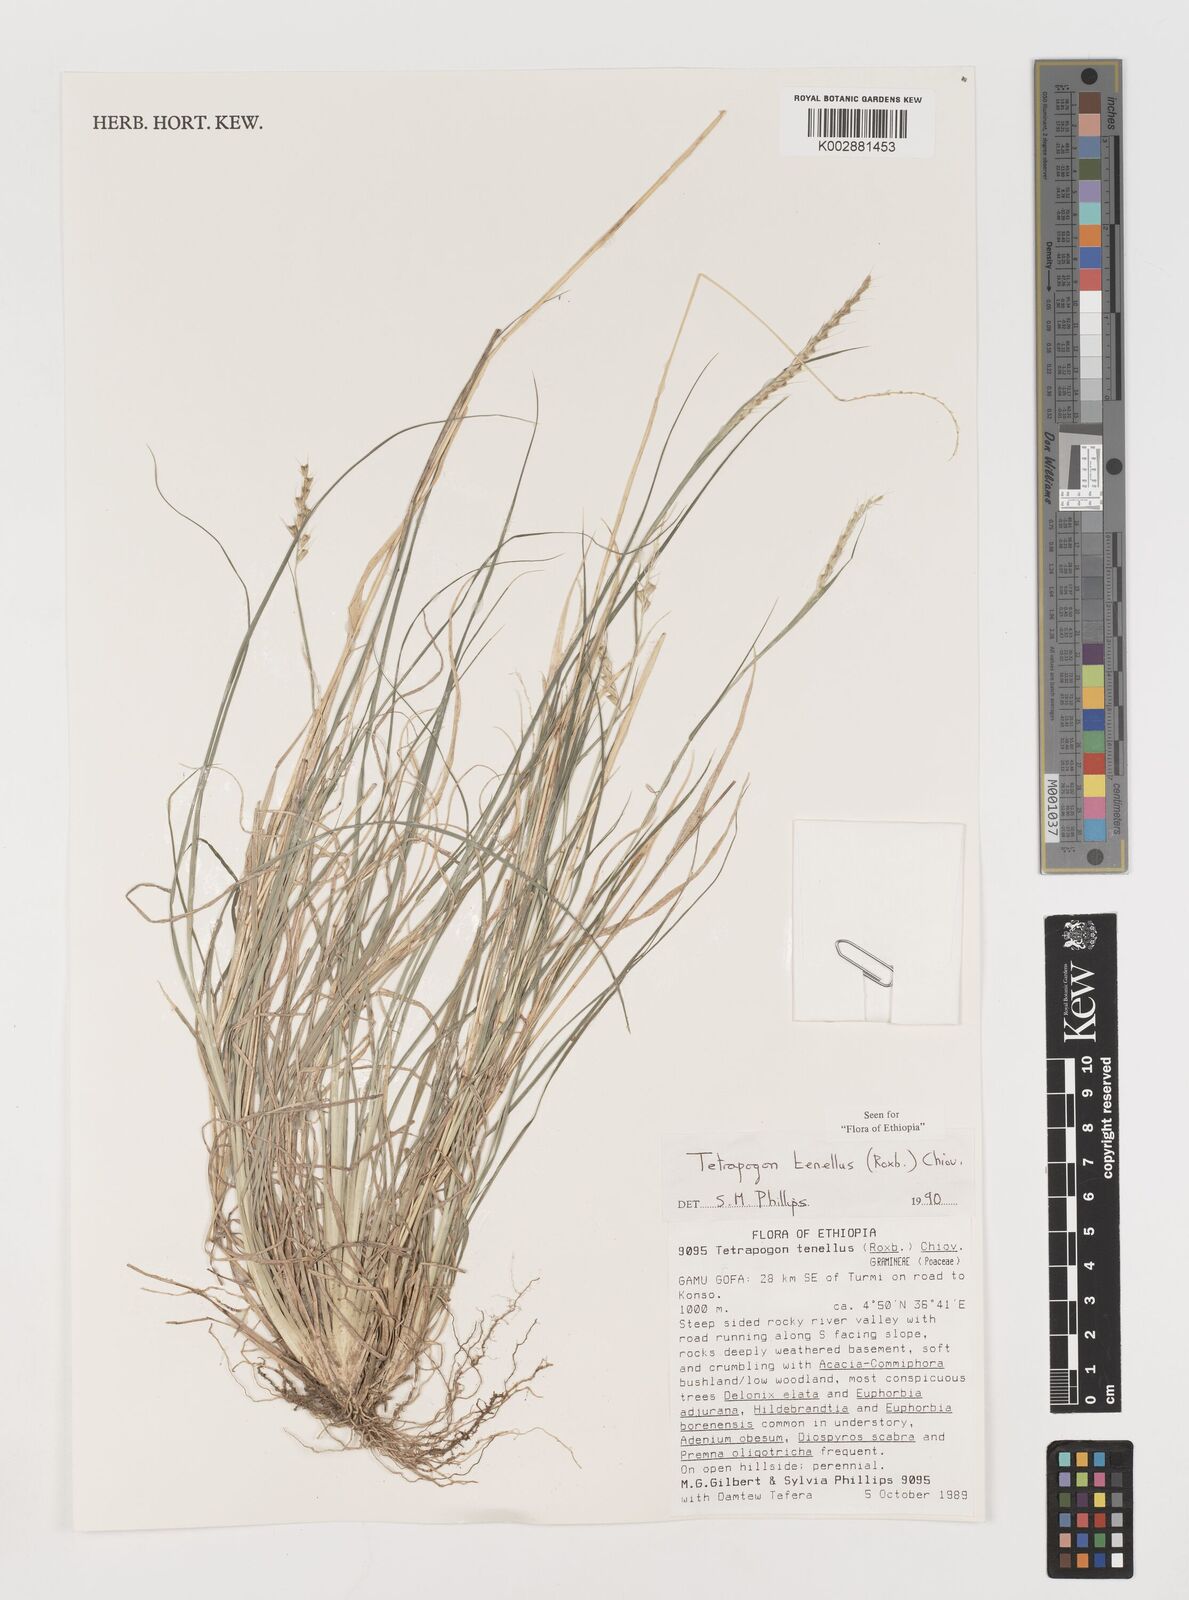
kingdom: Plantae
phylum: Tracheophyta
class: Liliopsida
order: Poales
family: Poaceae
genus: Tetrapogon
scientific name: Tetrapogon tenellus
